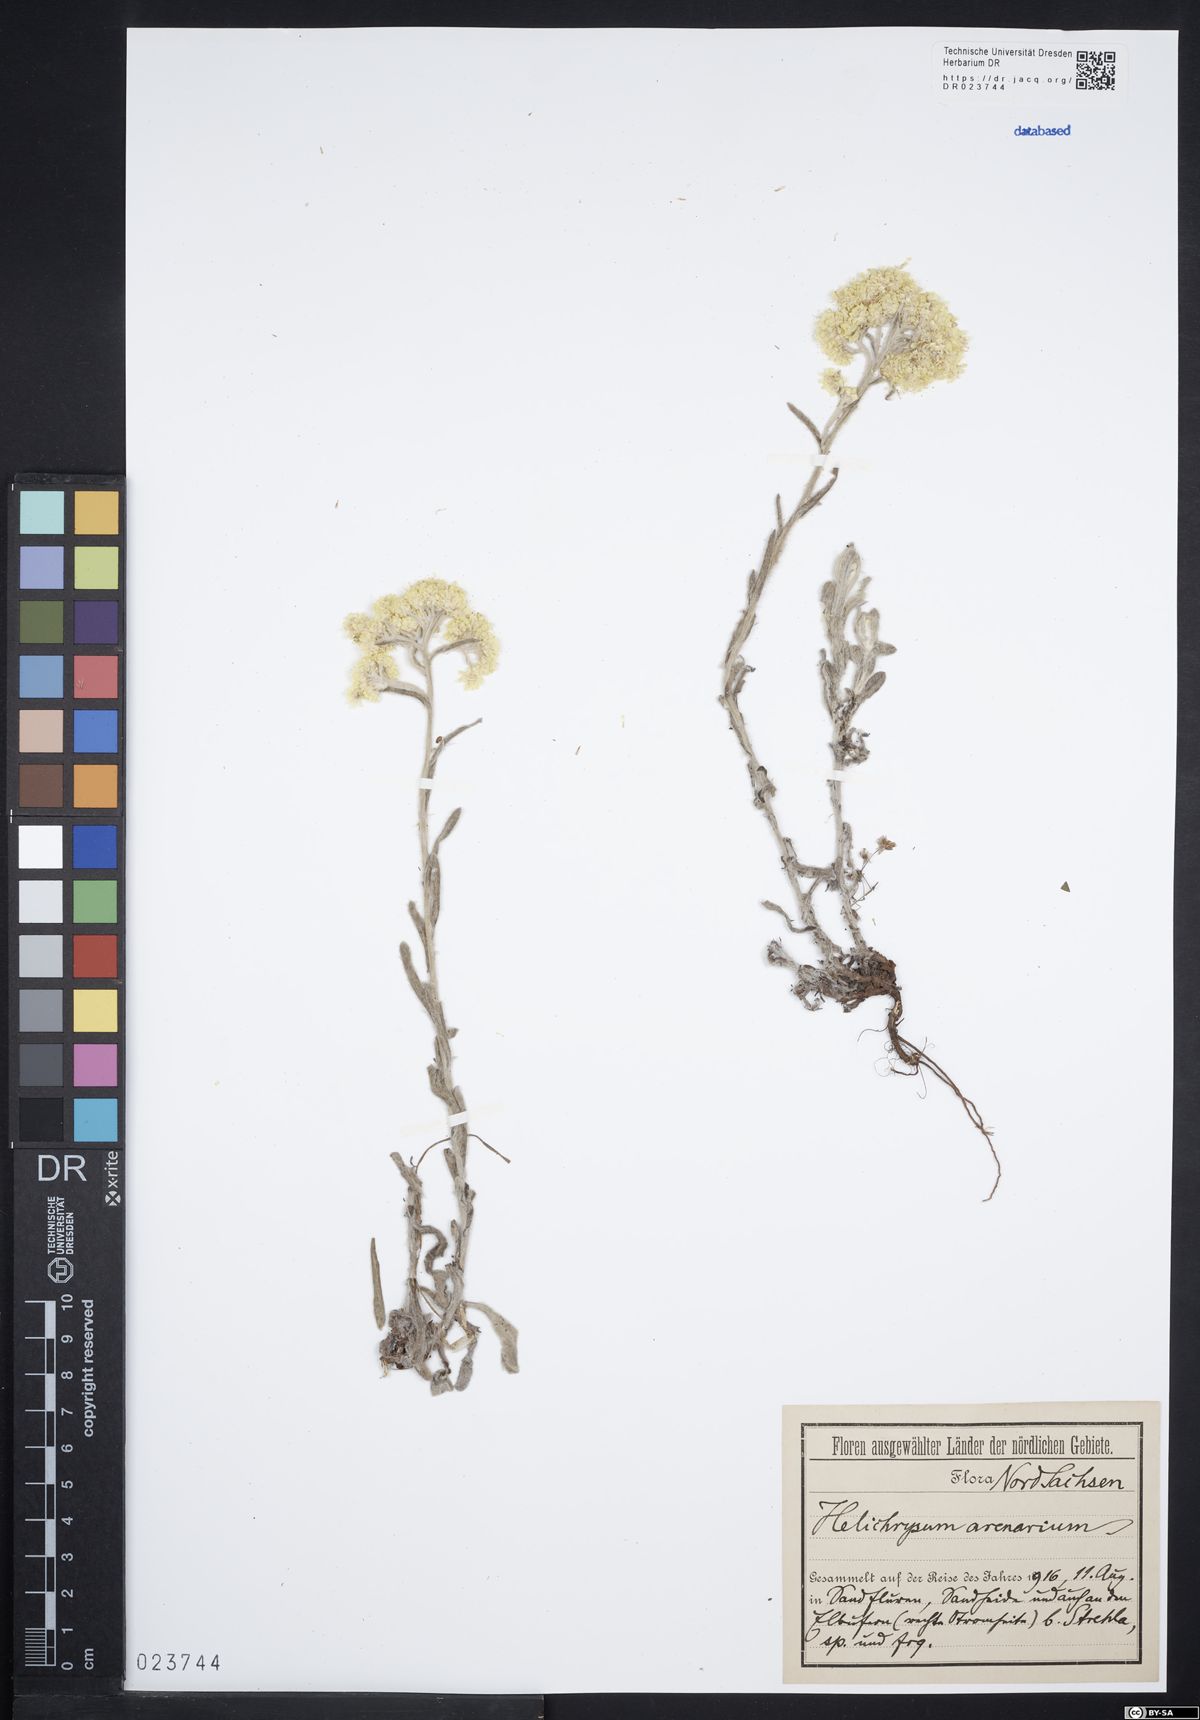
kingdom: Plantae
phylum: Tracheophyta
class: Magnoliopsida
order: Asterales
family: Asteraceae
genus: Helichrysum
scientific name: Helichrysum arenarium
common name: Strawflower
